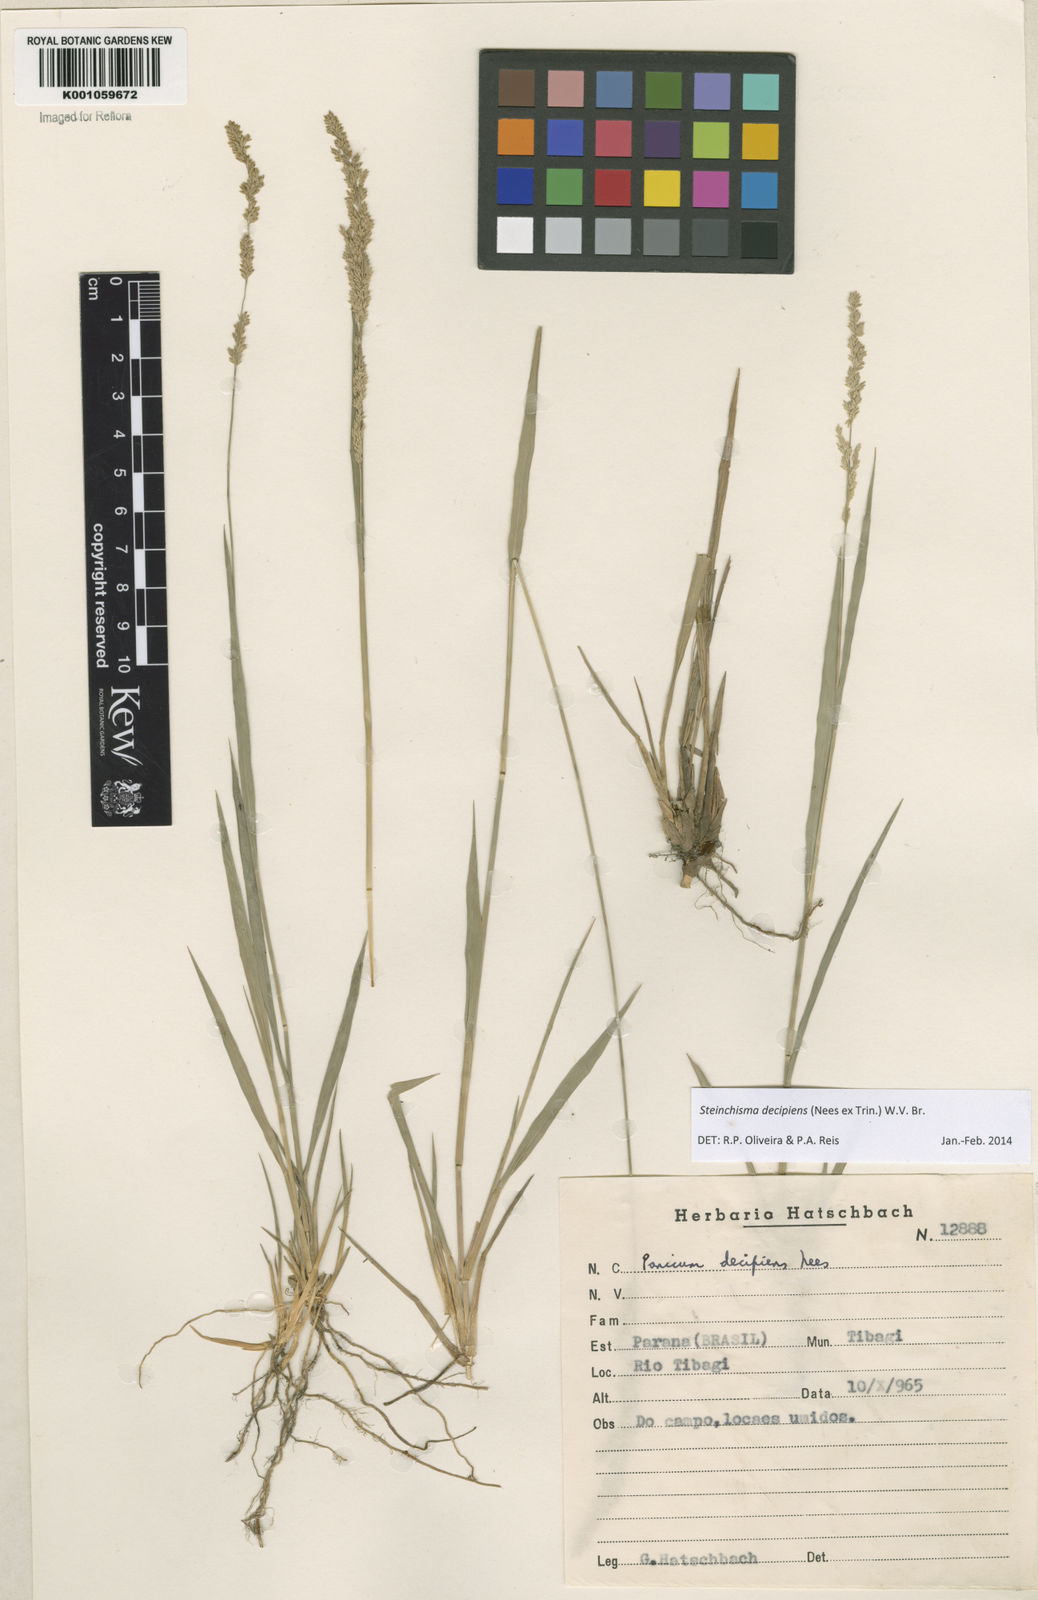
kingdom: Plantae
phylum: Tracheophyta
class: Liliopsida
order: Poales
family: Poaceae
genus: Steinchisma
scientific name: Steinchisma decipiens
